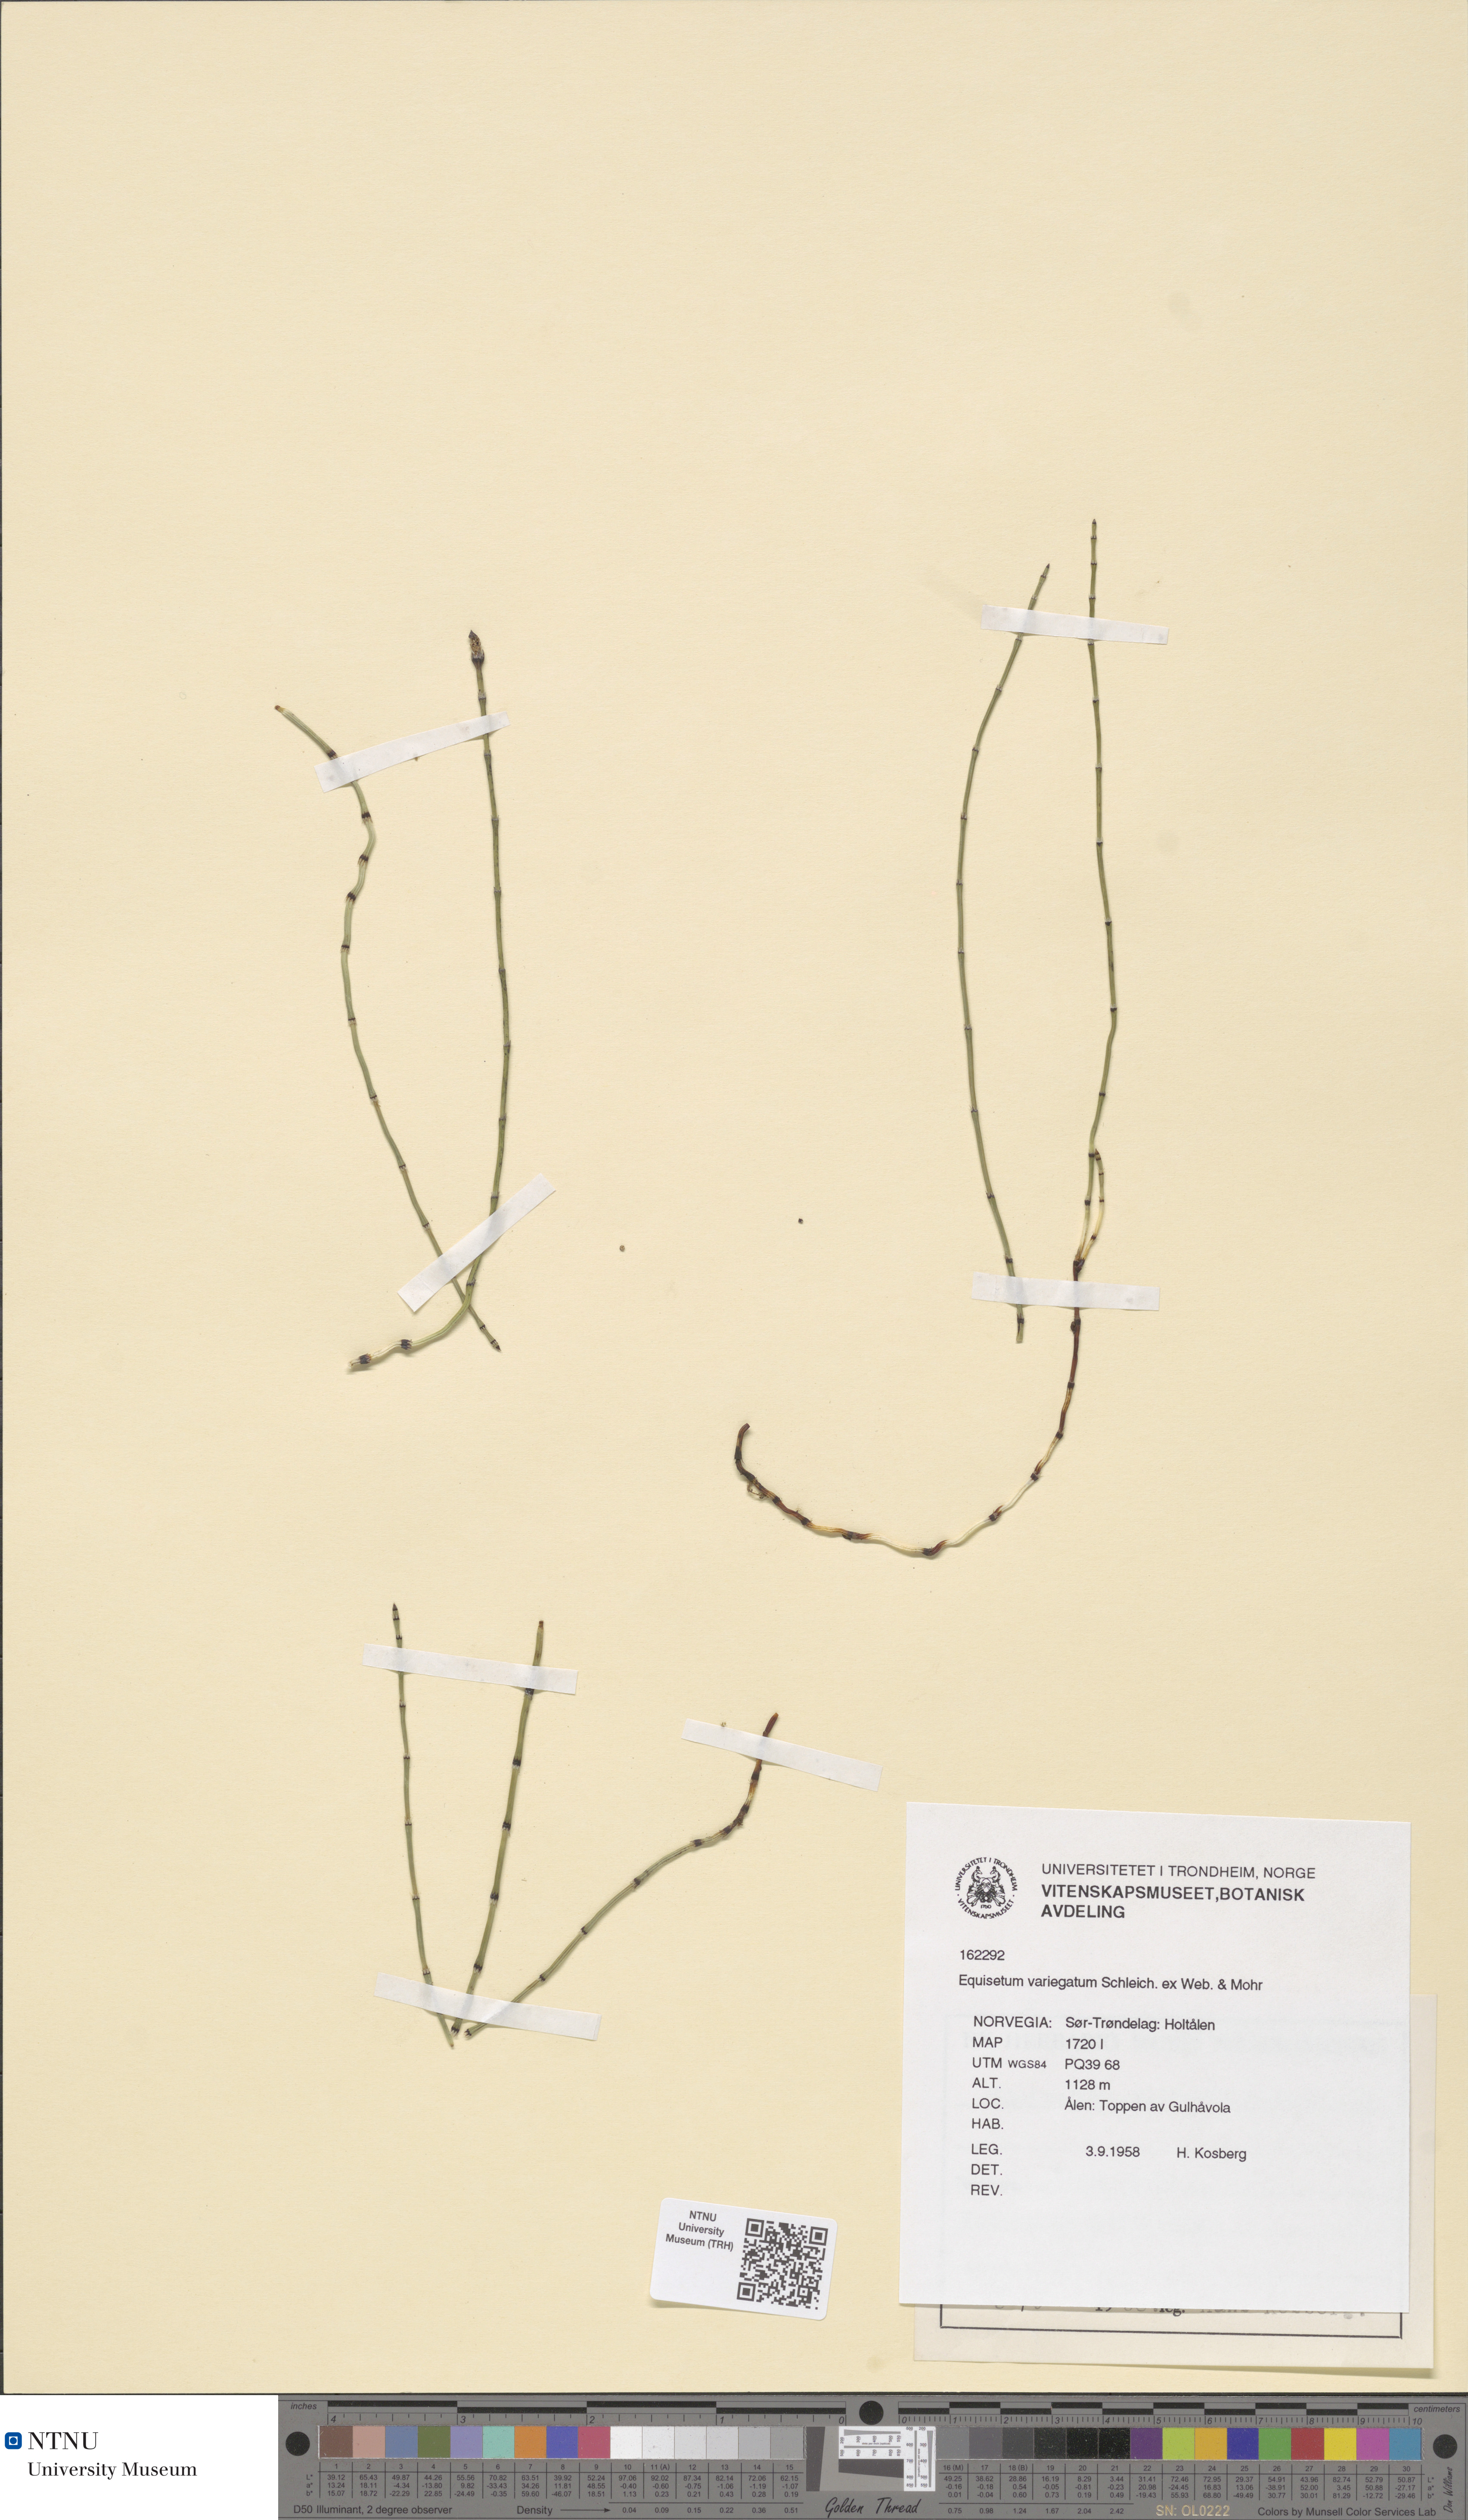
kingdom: Plantae
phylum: Tracheophyta
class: Polypodiopsida
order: Equisetales
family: Equisetaceae
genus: Equisetum
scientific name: Equisetum variegatum
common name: Variegated horsetail
